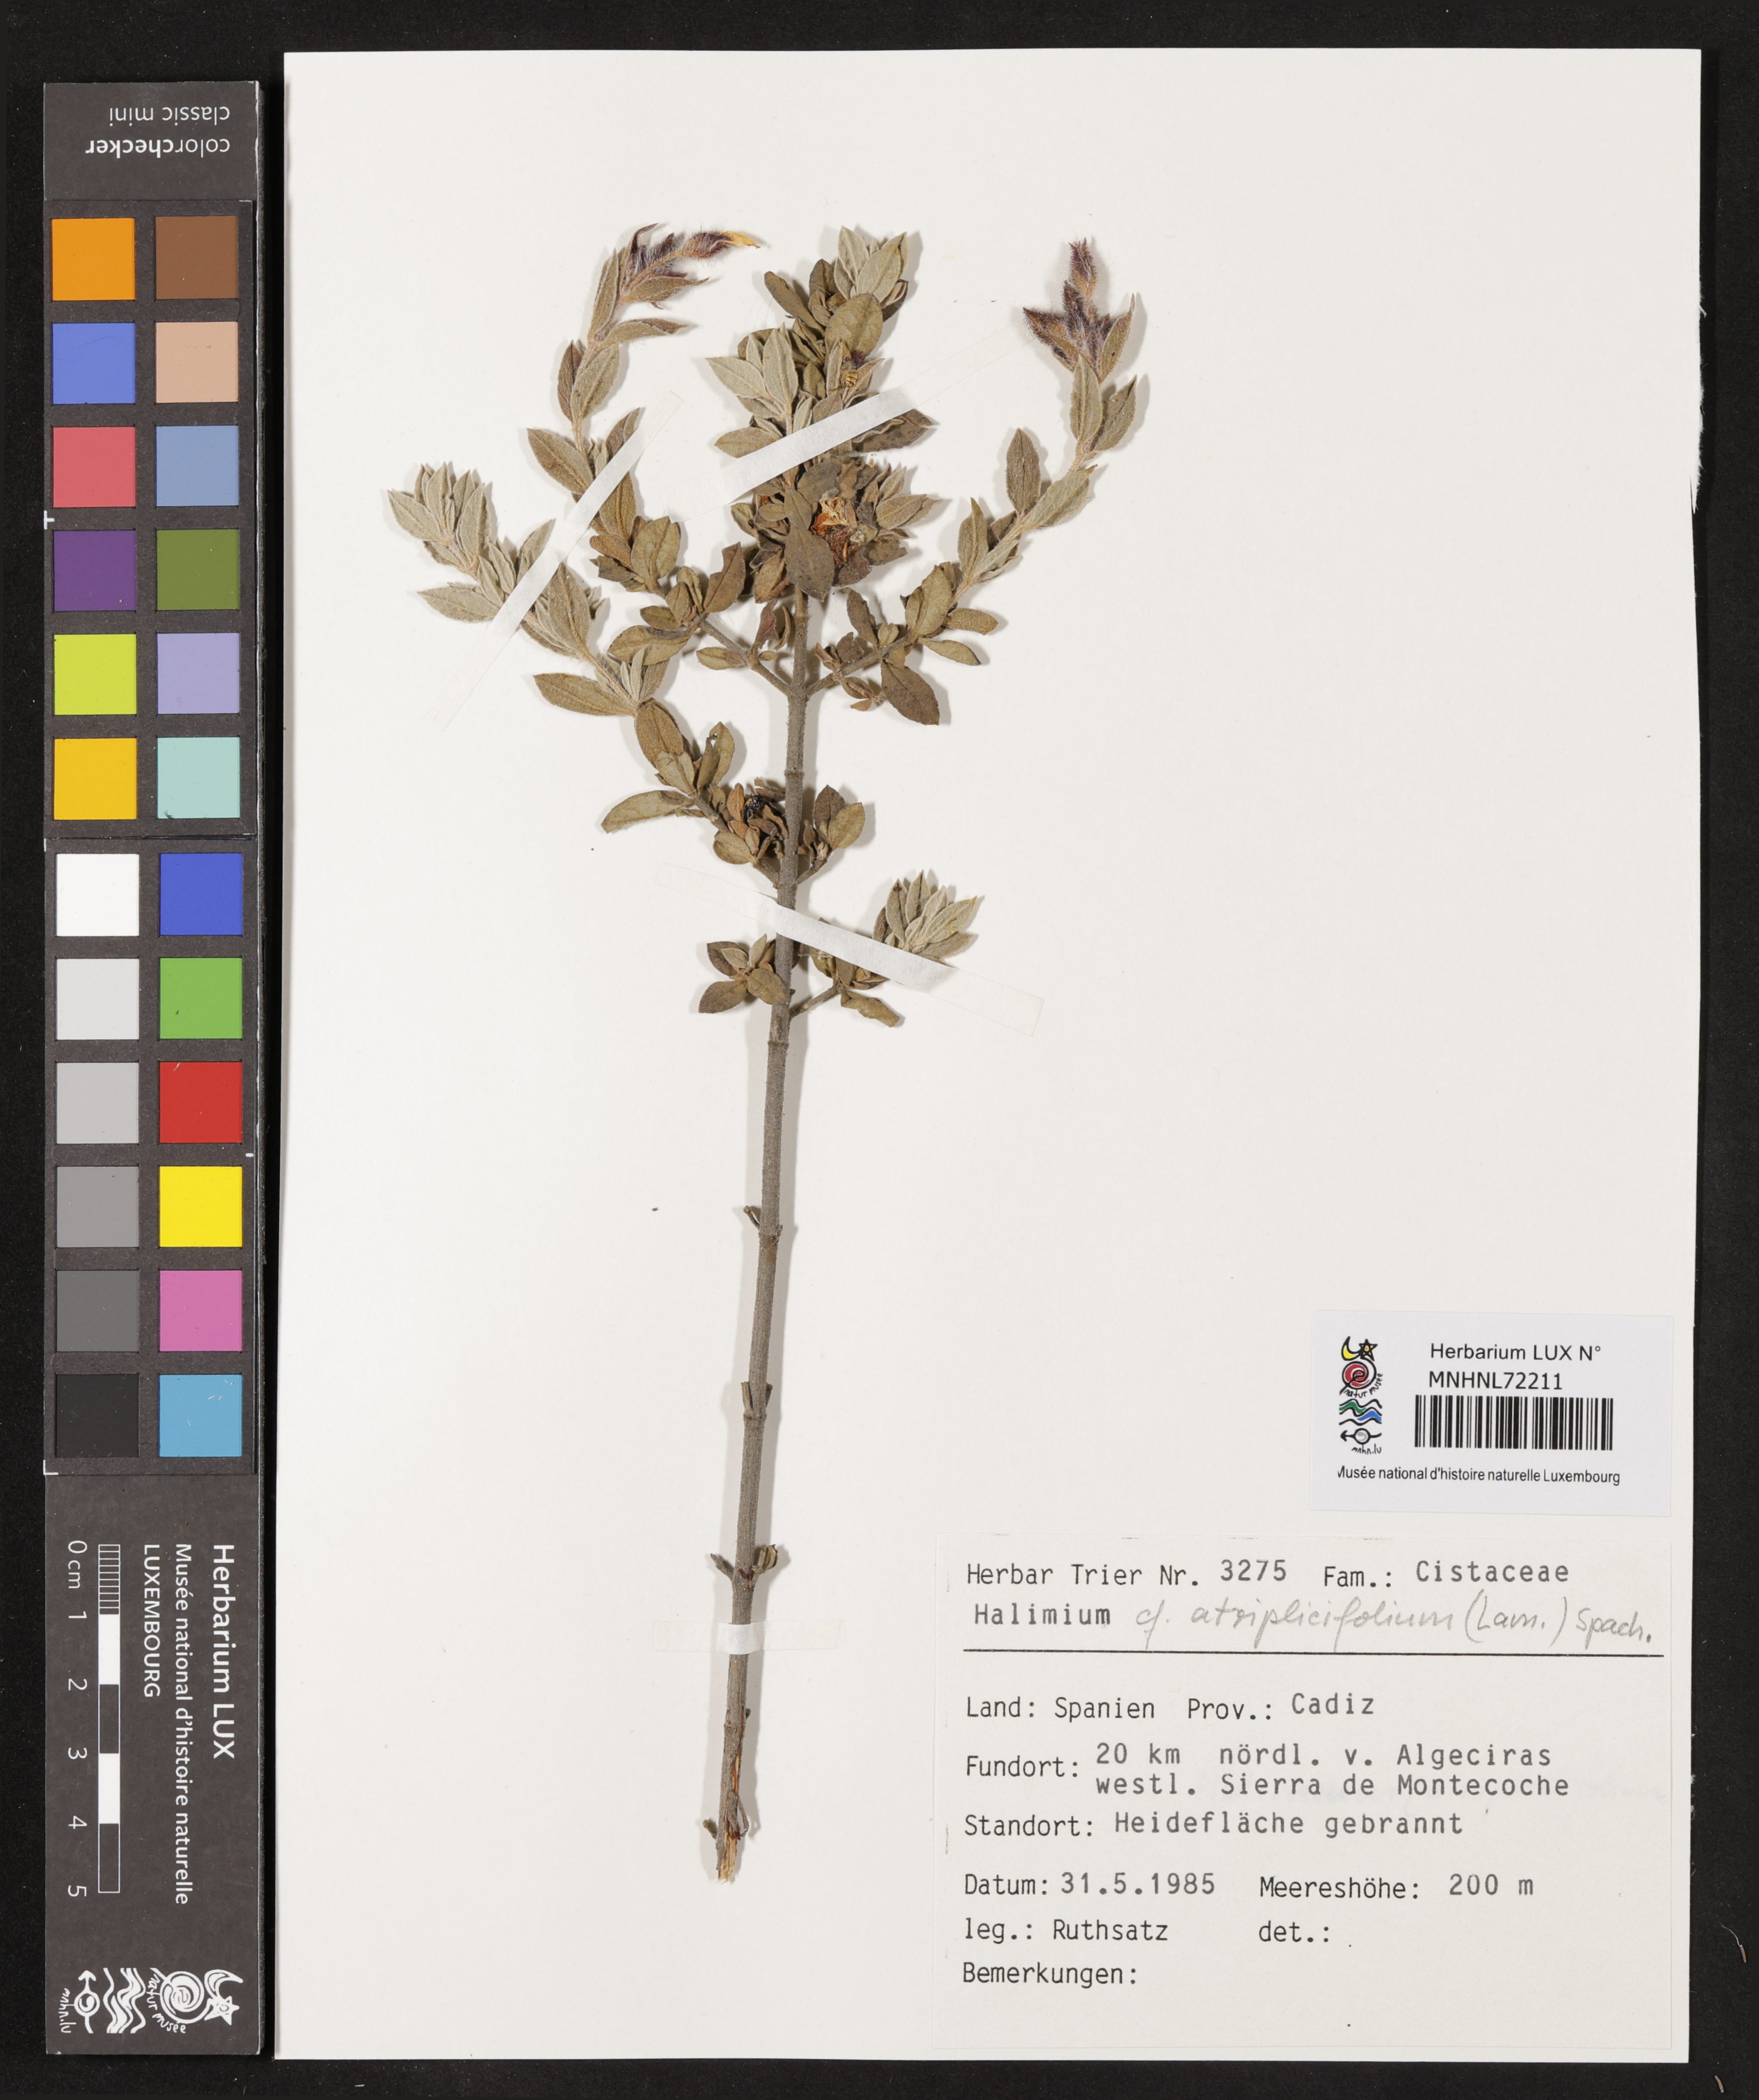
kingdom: Plantae
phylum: Tracheophyta
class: Magnoliopsida
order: Malvales
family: Cistaceae
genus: Halimium
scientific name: Halimium atriplicifolium
